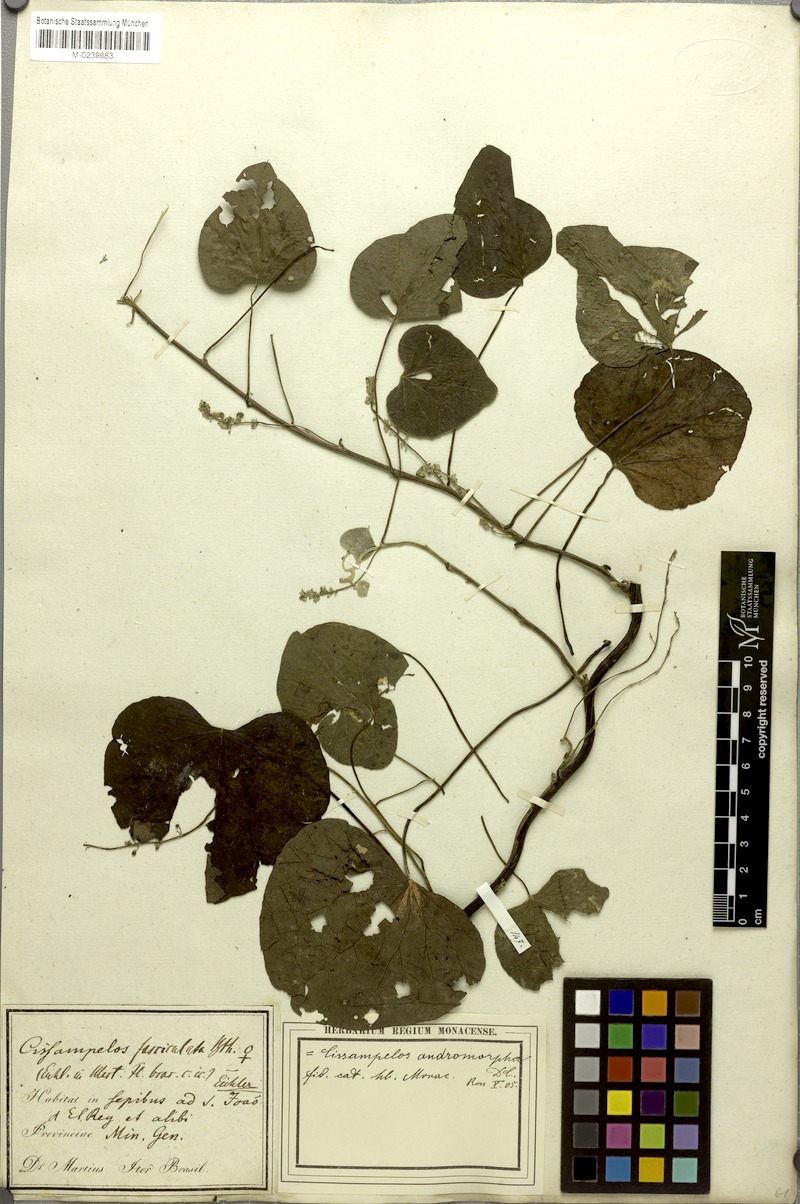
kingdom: Plantae
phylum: Tracheophyta
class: Magnoliopsida
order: Ranunculales
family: Menispermaceae
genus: Cissampelos
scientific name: Cissampelos andromorpha
